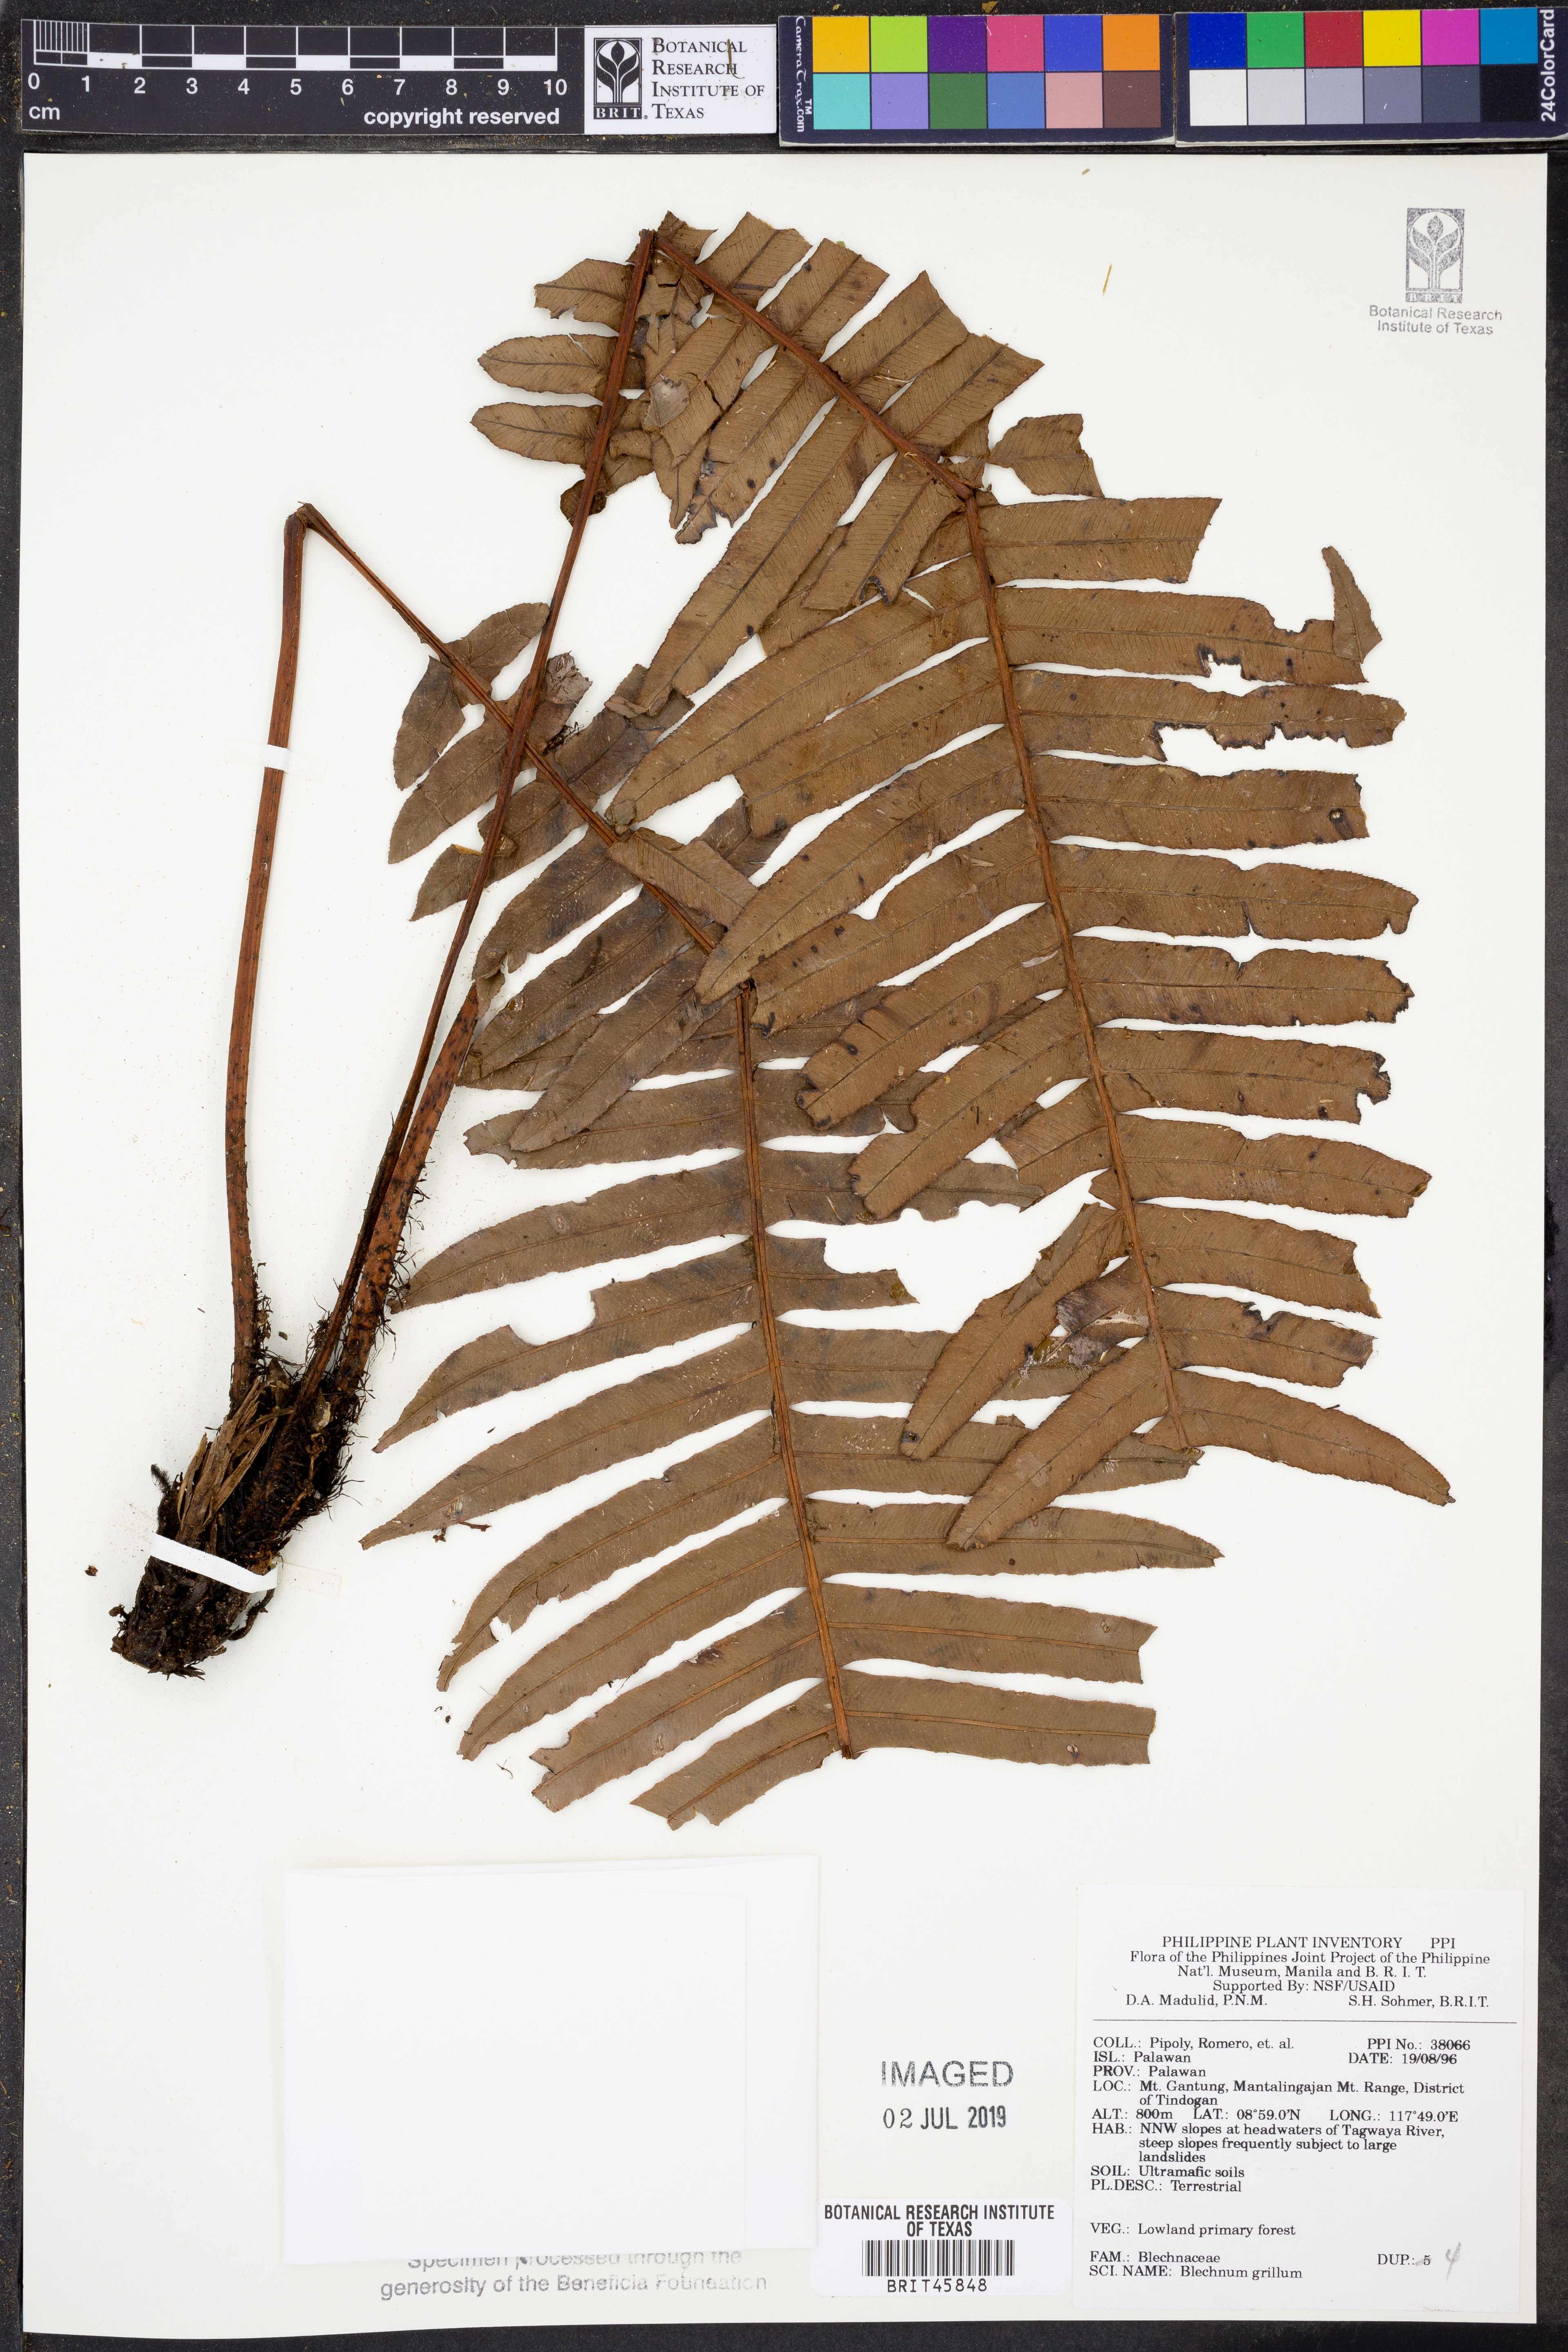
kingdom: Plantae
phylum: Tracheophyta
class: Polypodiopsida
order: Polypodiales
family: Blechnaceae
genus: Blechnum
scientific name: Blechnum
